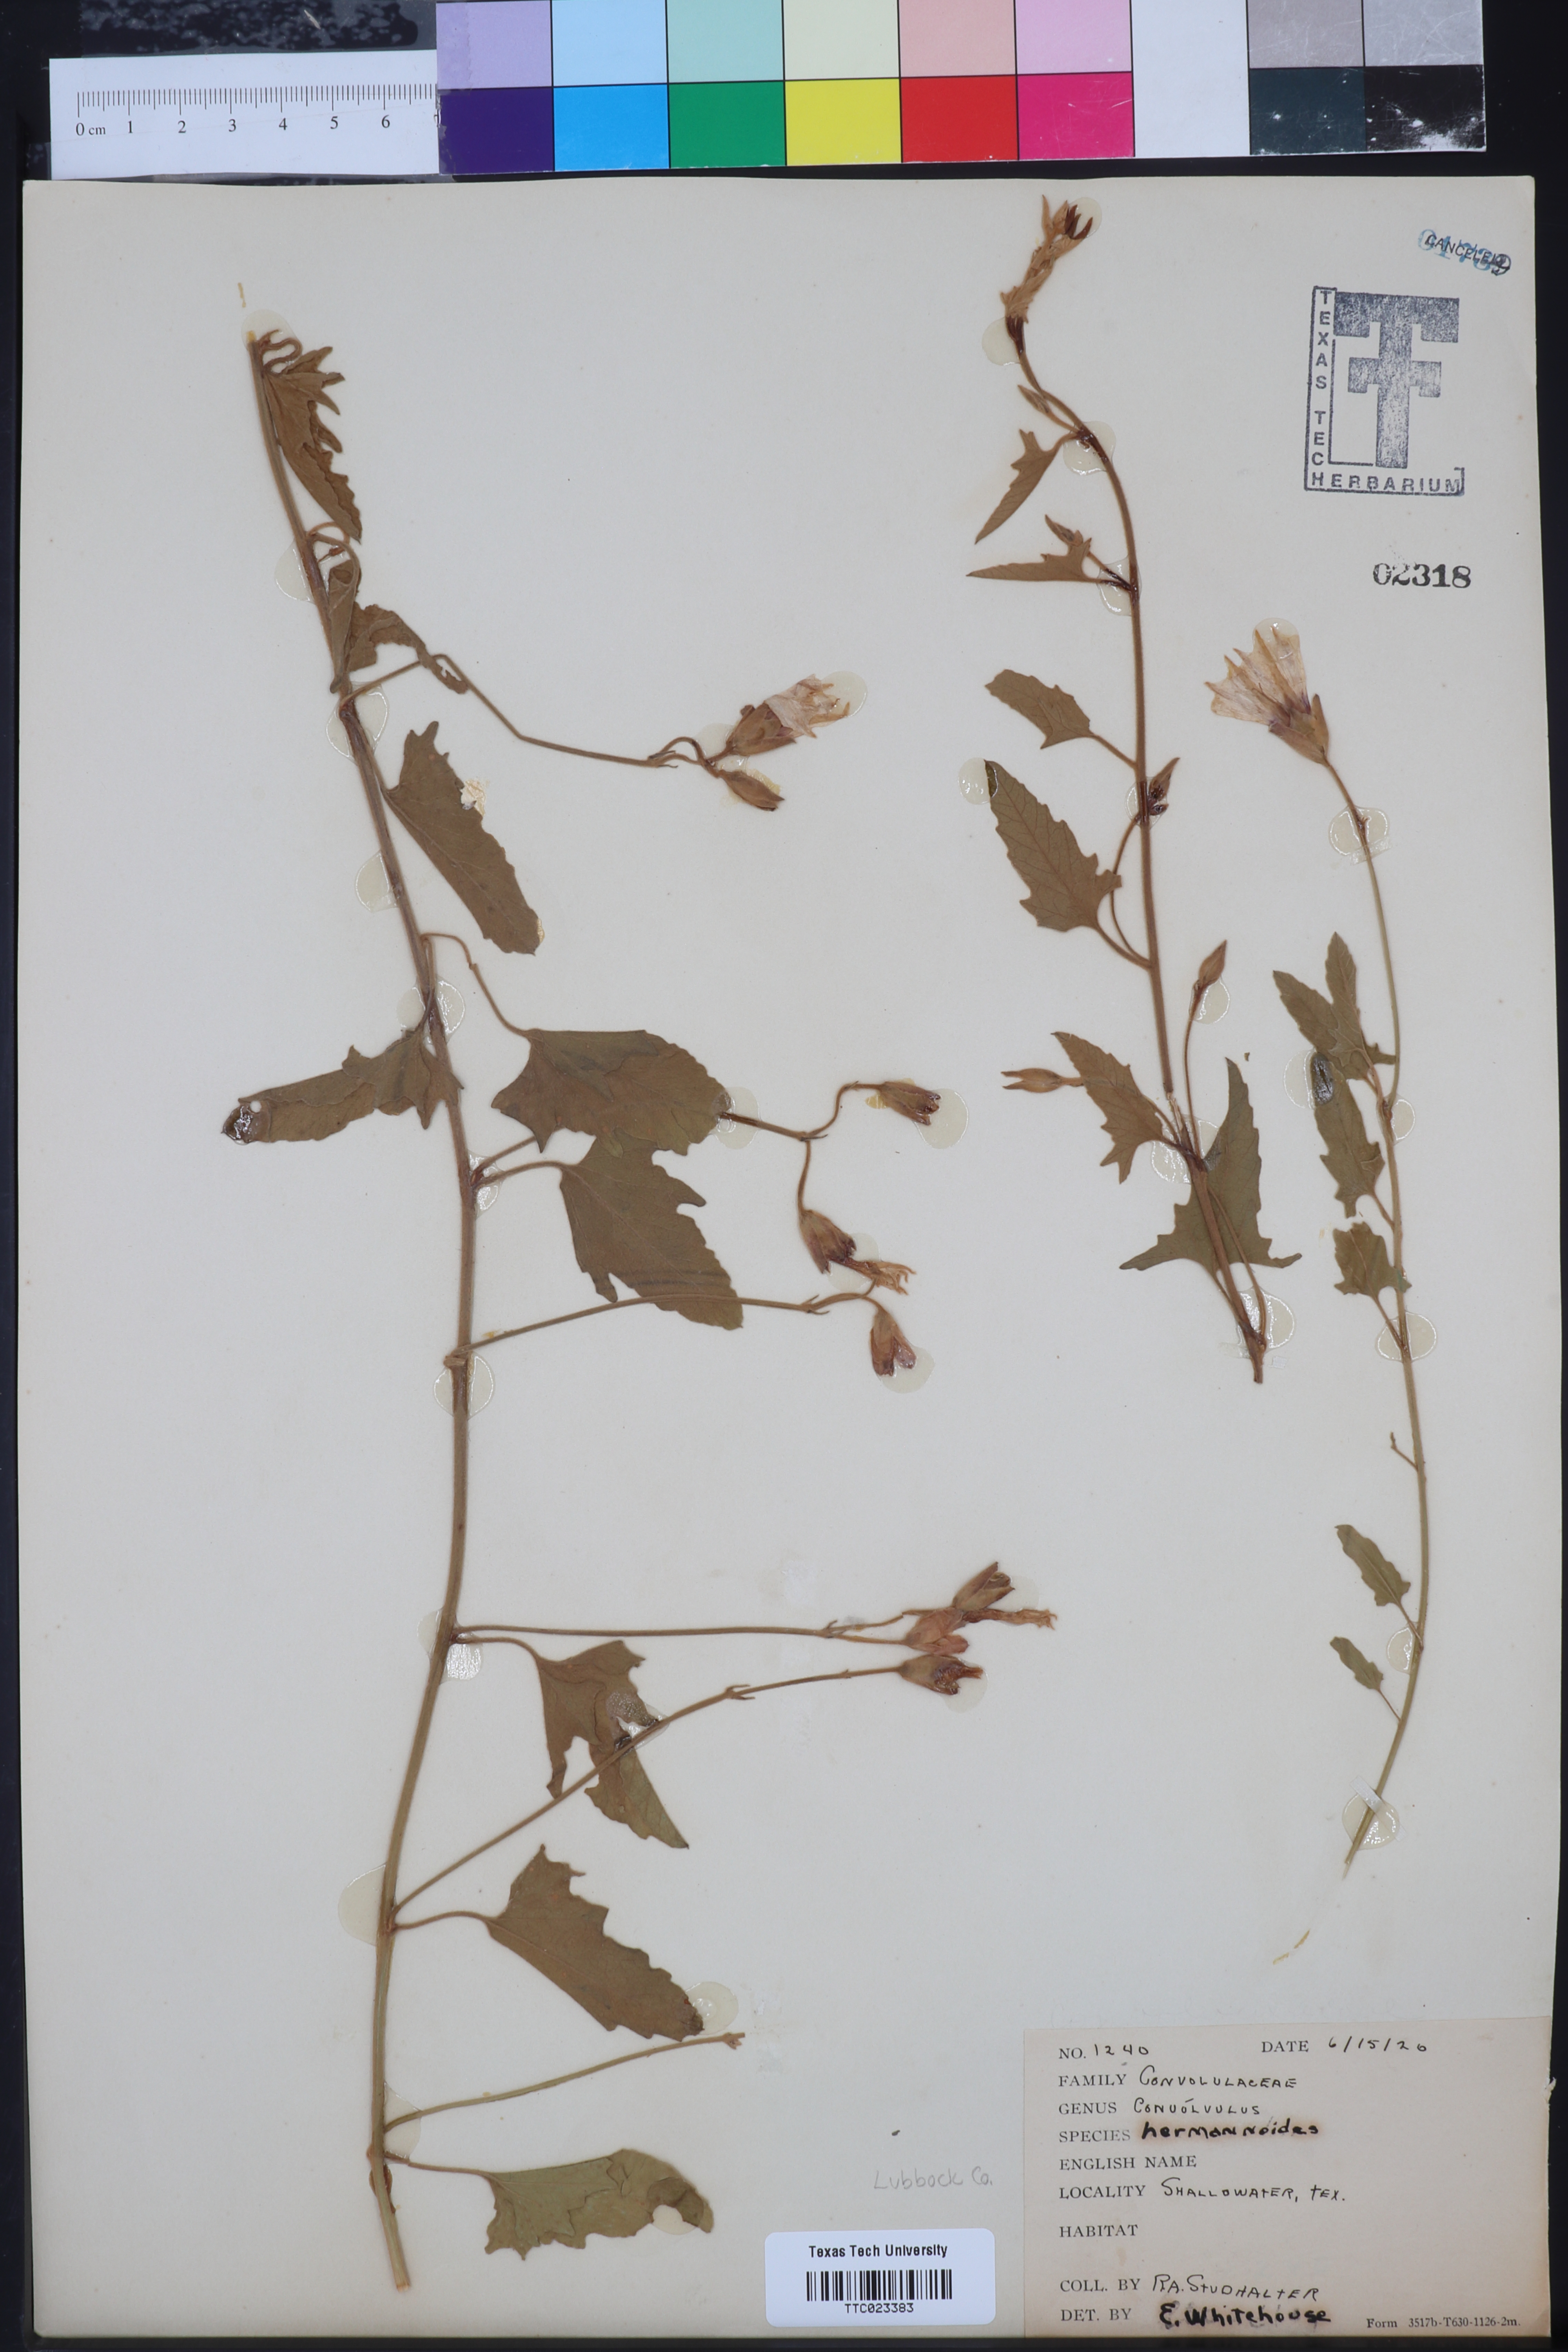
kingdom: Plantae
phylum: Tracheophyta
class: Magnoliopsida
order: Solanales
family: Convolvulaceae
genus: Convolvulus
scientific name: Convolvulus equitans
